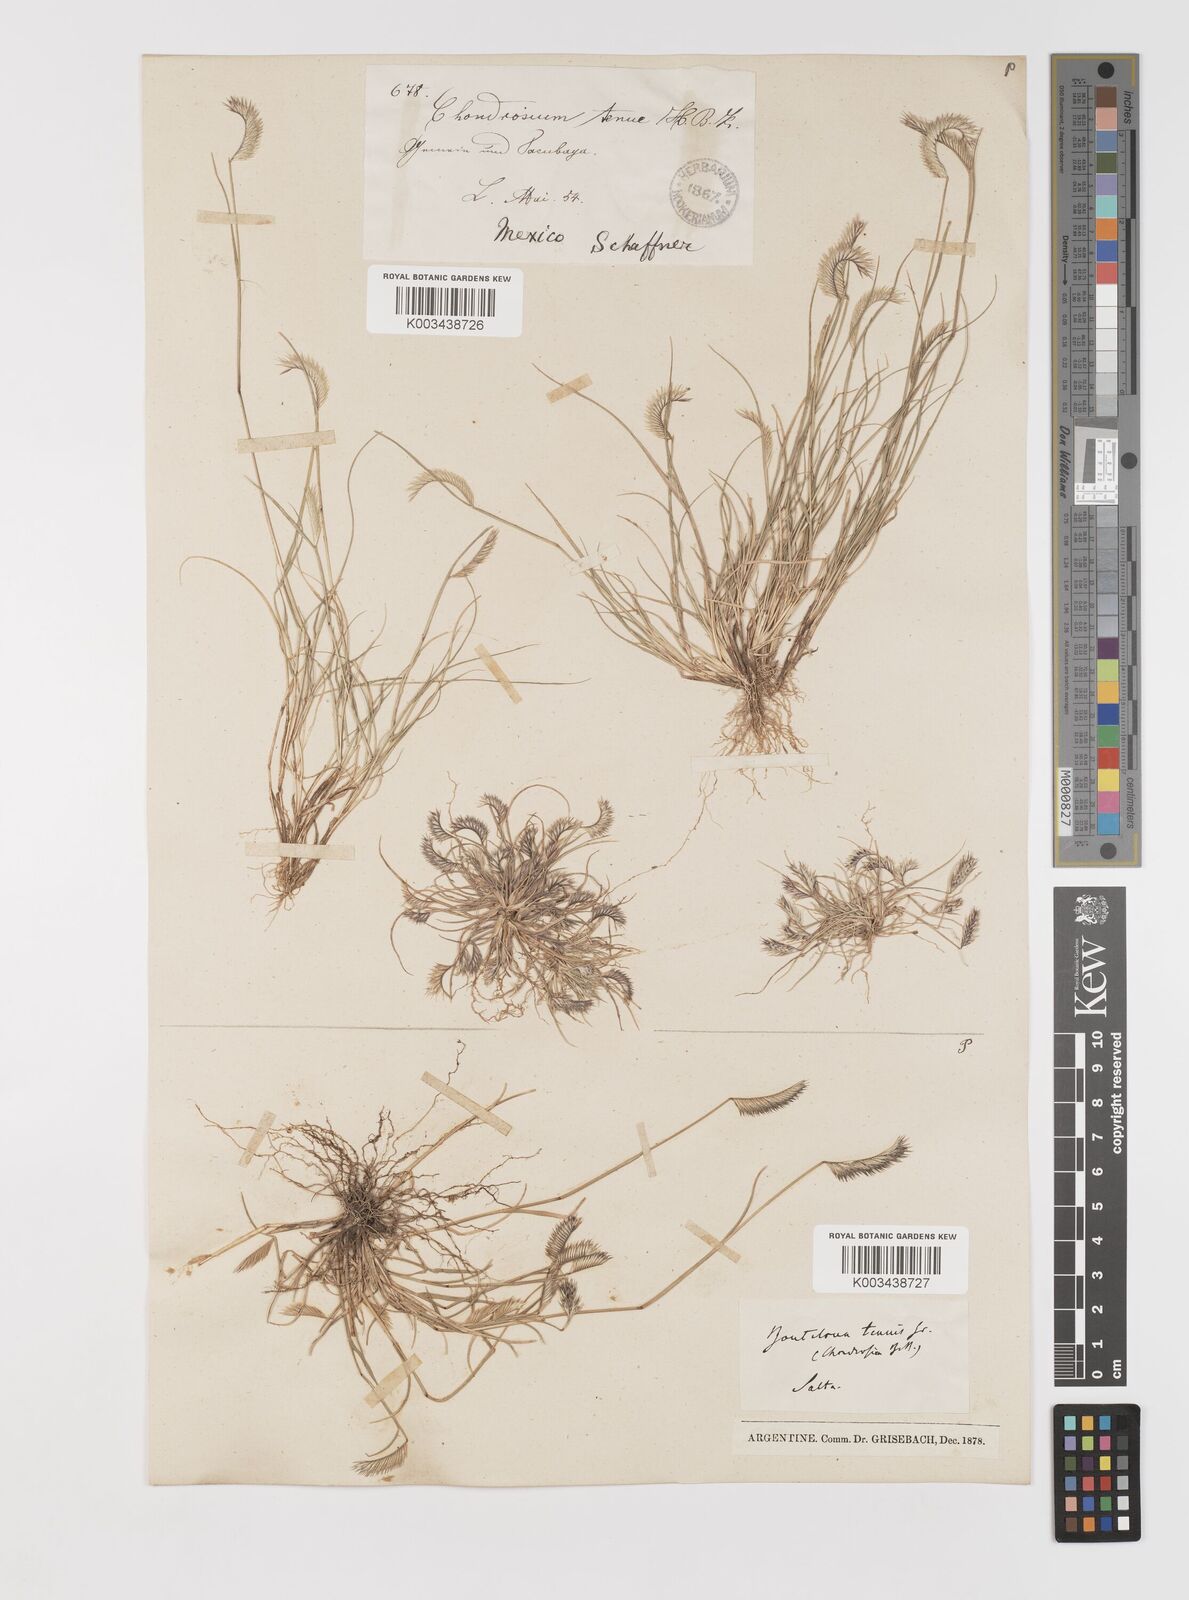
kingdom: Plantae
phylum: Tracheophyta
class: Liliopsida
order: Poales
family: Poaceae
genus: Bouteloua
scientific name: Bouteloua simplex
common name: Mat grama
